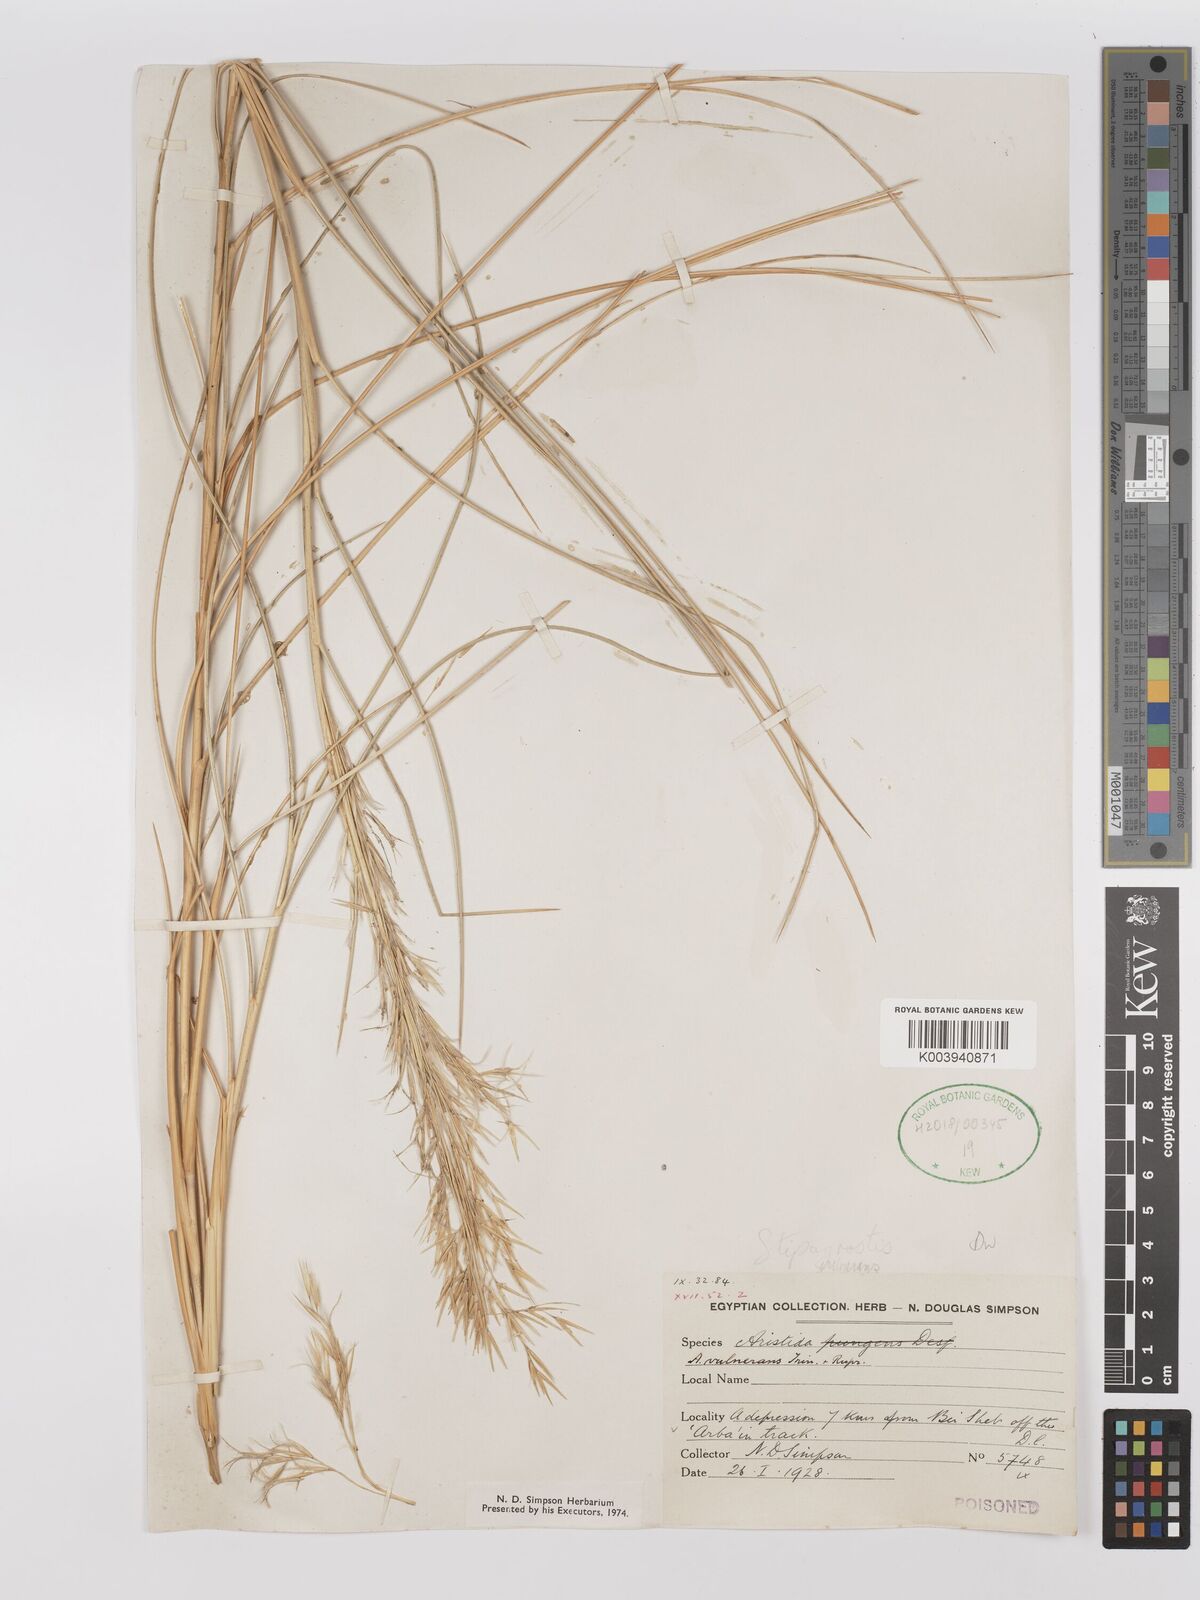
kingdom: Plantae
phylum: Tracheophyta
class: Liliopsida
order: Poales
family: Poaceae
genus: Stipagrostis
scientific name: Stipagrostis vulnerans
